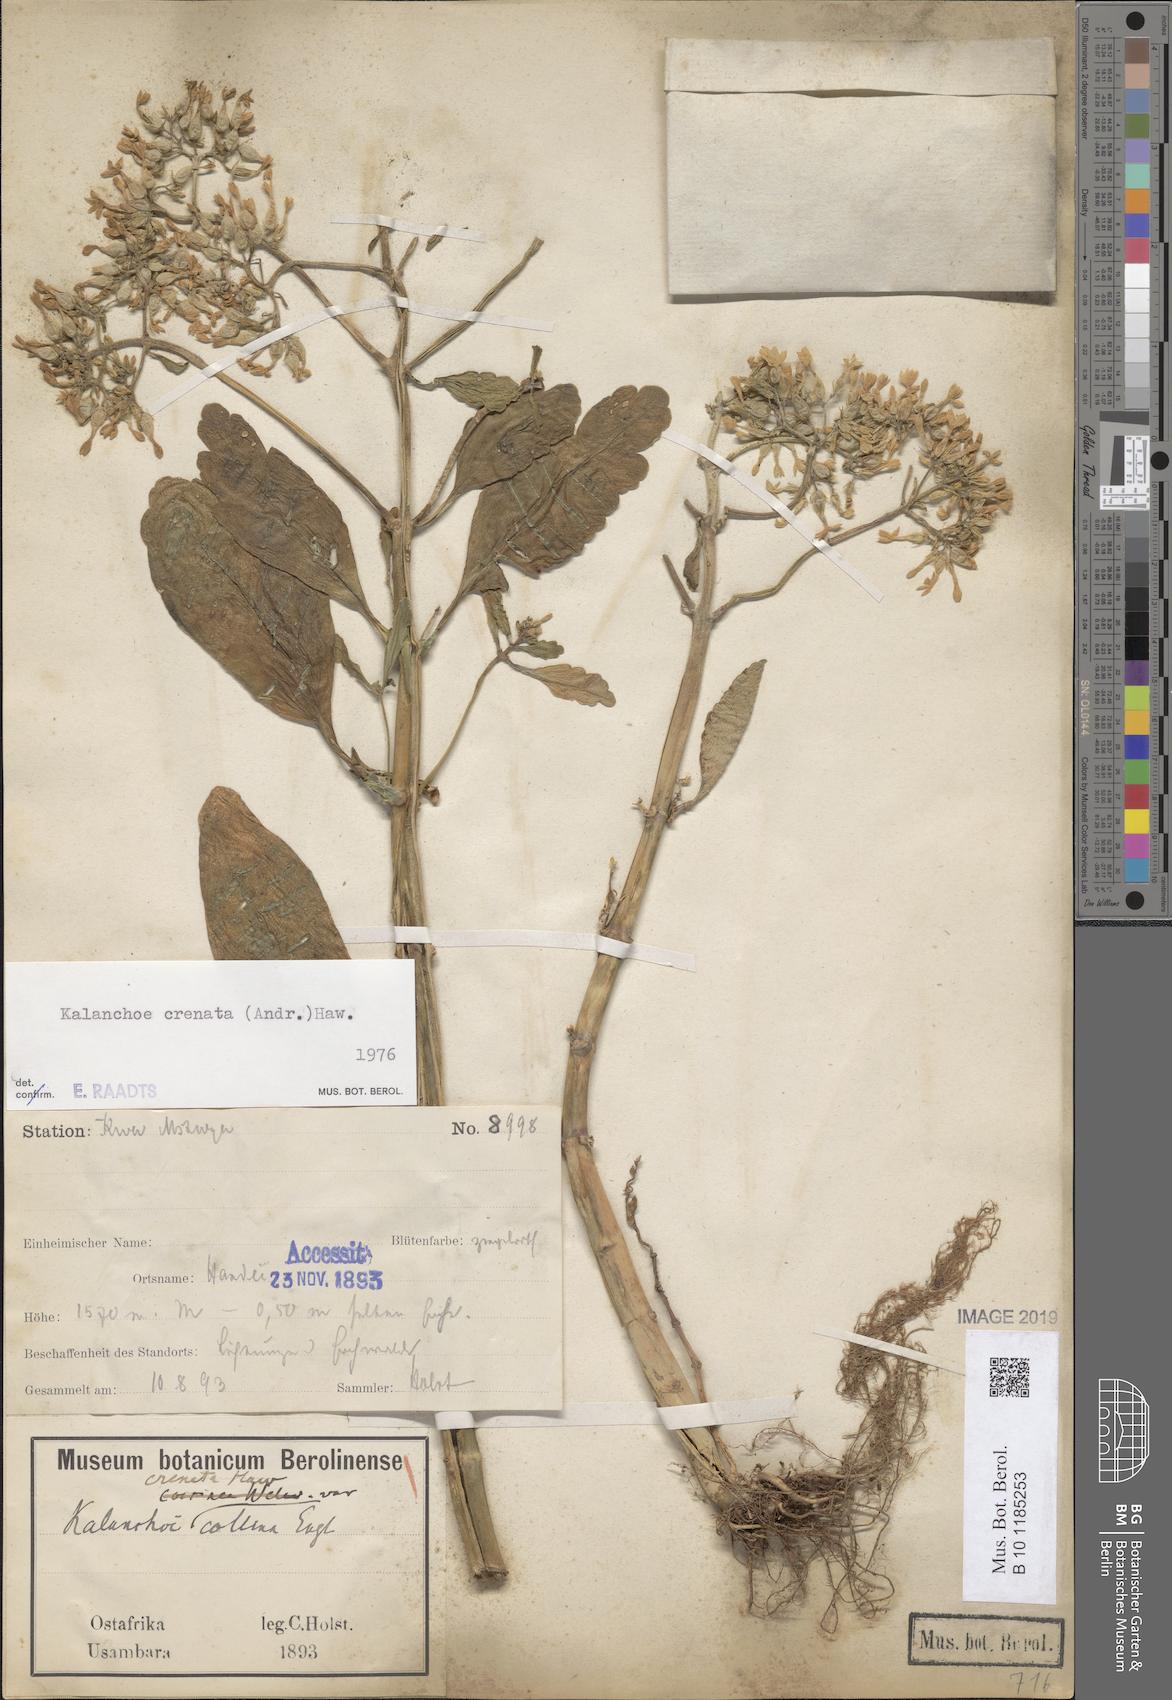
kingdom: Plantae
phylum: Tracheophyta
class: Magnoliopsida
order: Saxifragales
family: Crassulaceae
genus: Kalanchoe
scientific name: Kalanchoe crenata
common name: Neverdie
